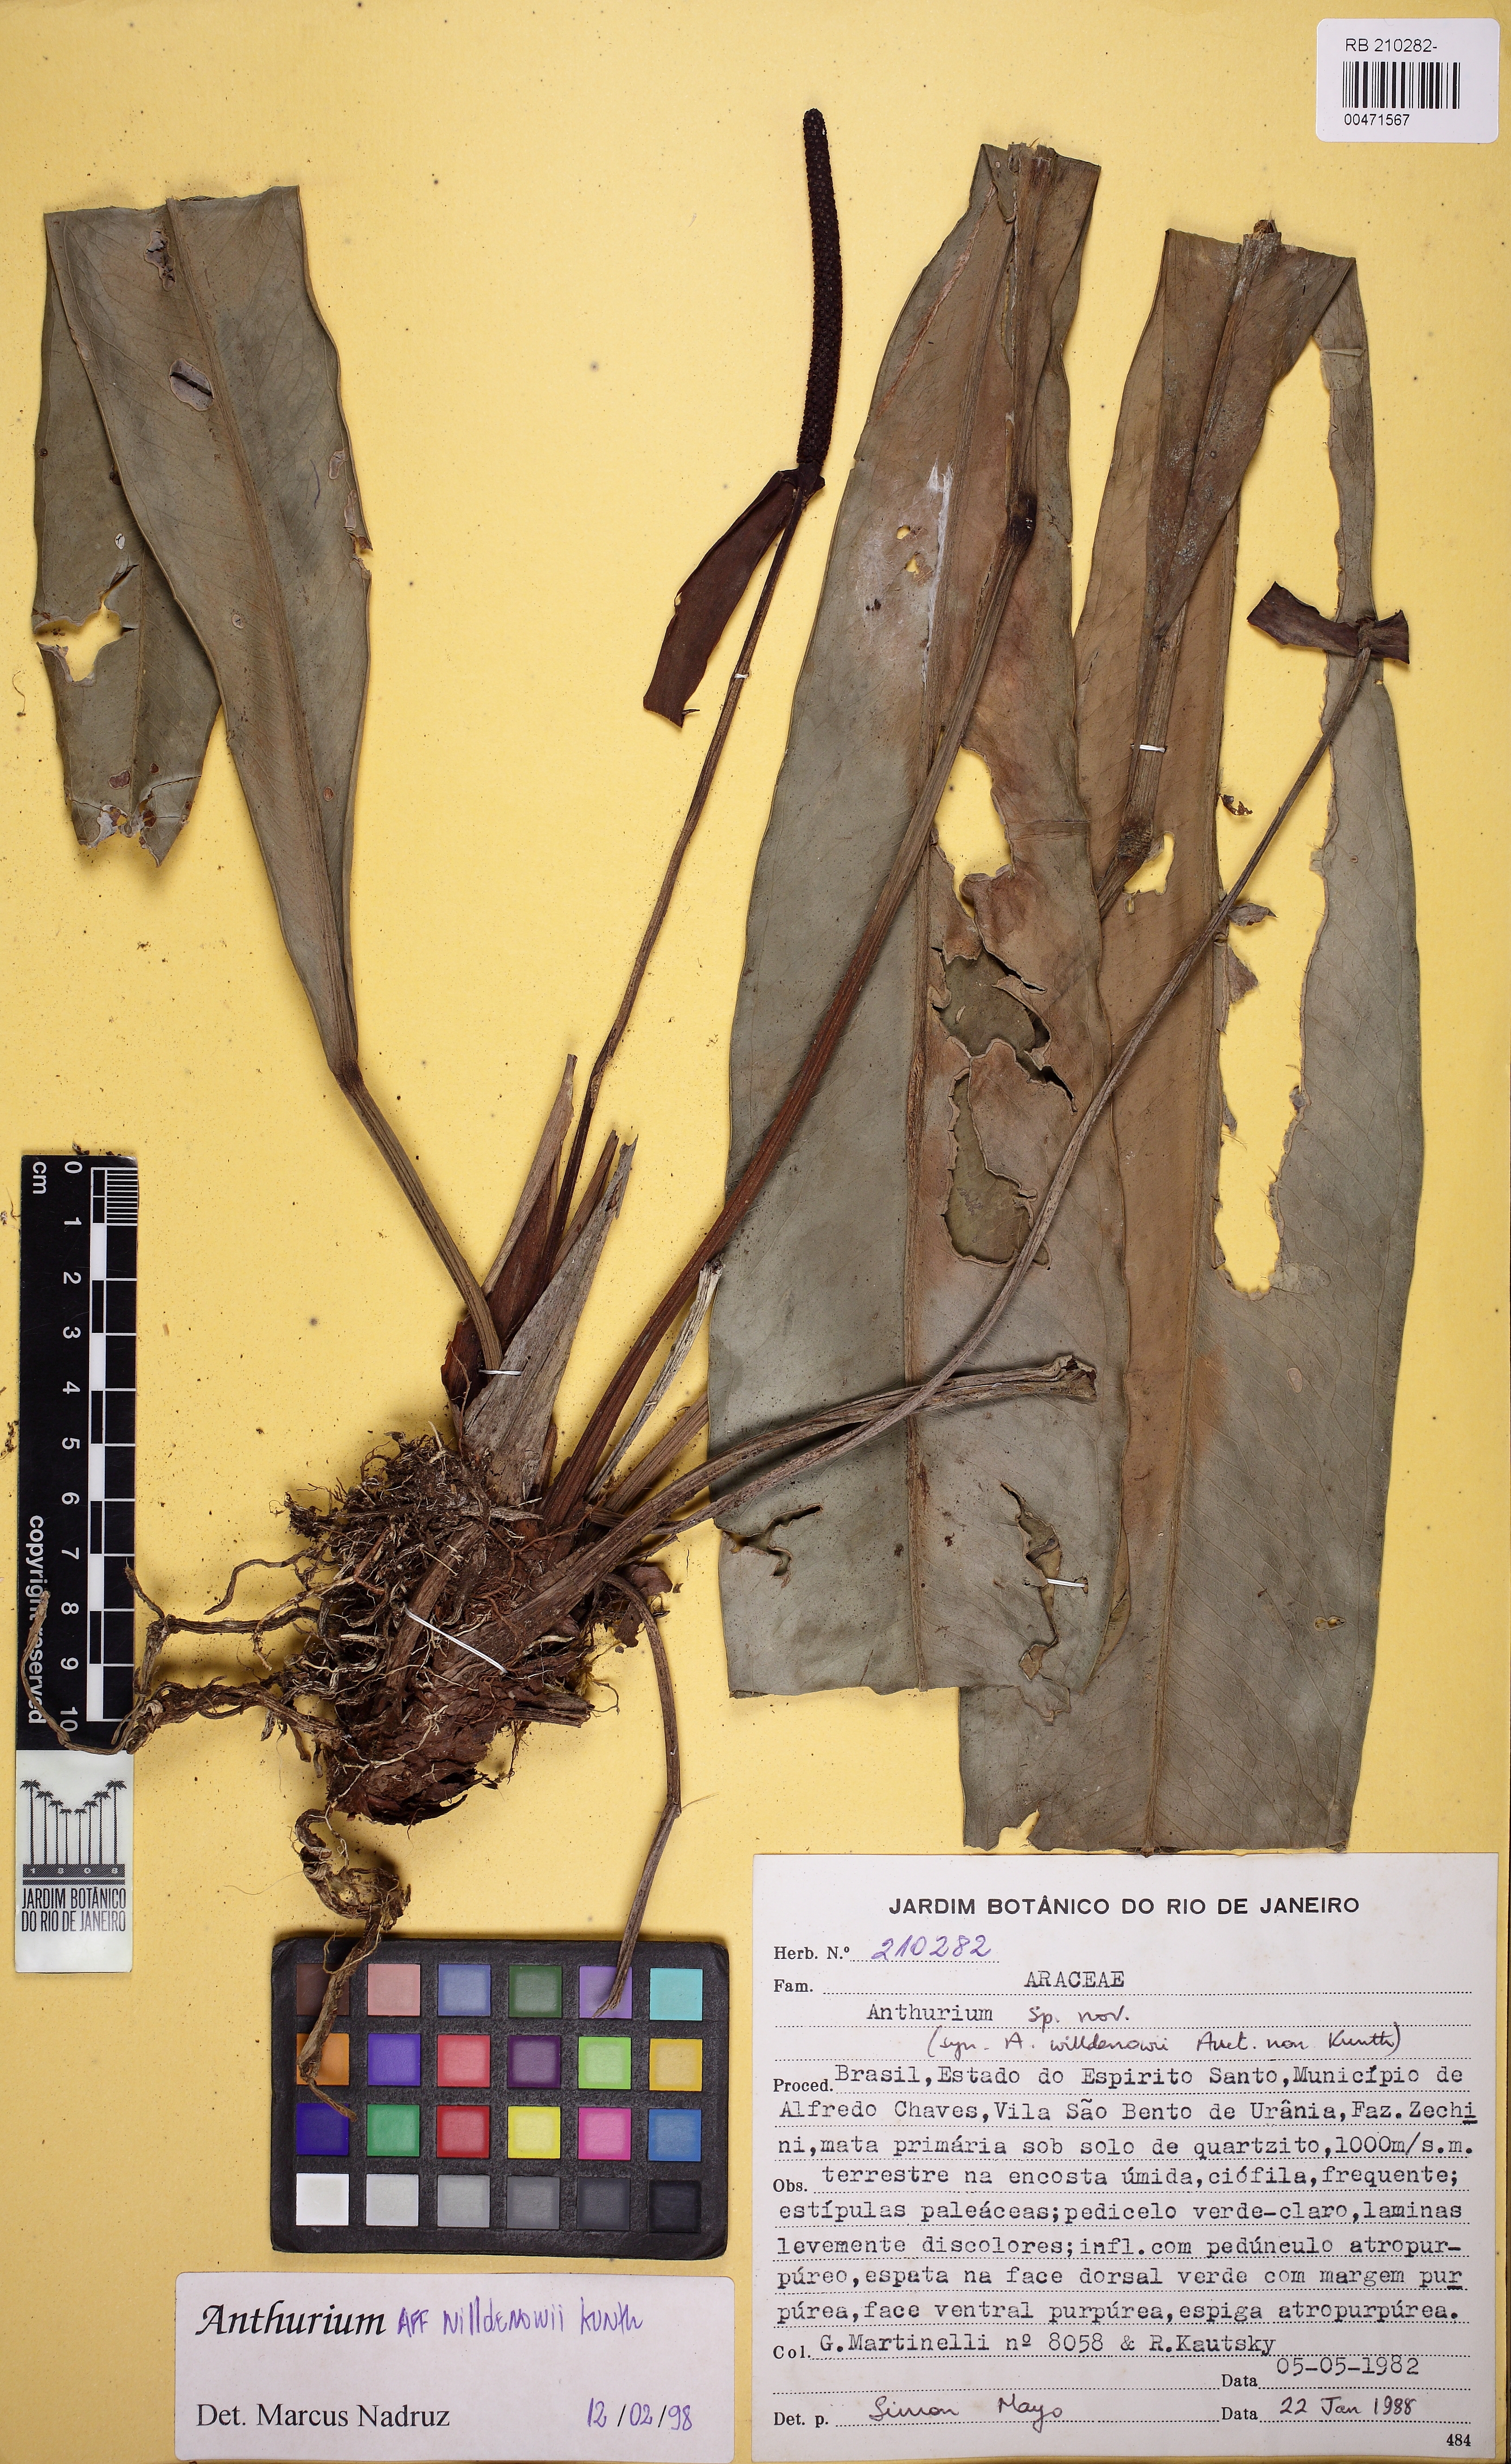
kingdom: Plantae
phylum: Tracheophyta
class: Liliopsida
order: Alismatales
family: Araceae
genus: Anthurium
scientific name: Anthurium willdenowii
